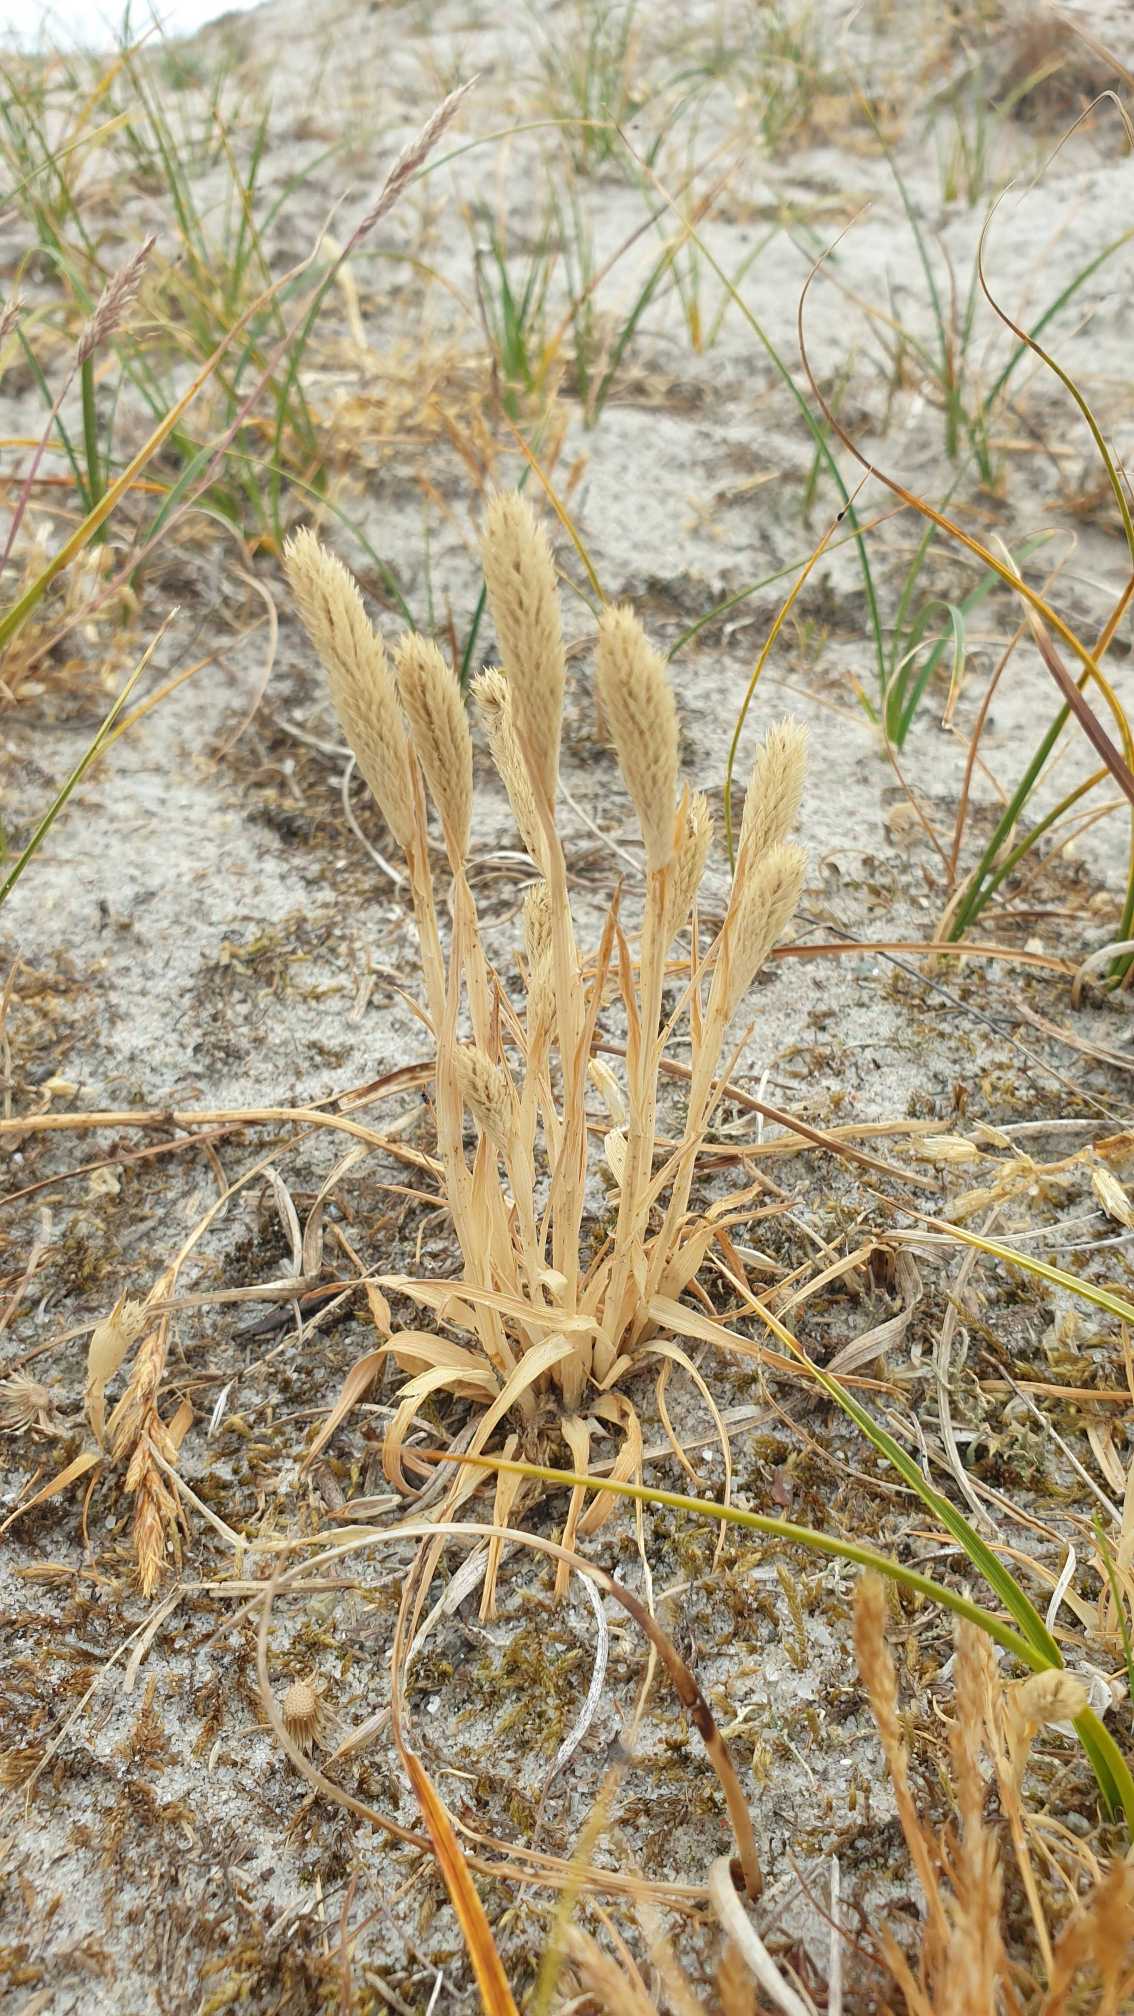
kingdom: Plantae
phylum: Tracheophyta
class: Liliopsida
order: Poales
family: Poaceae
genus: Phleum
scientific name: Phleum arenarium
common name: Sand-rottehale
